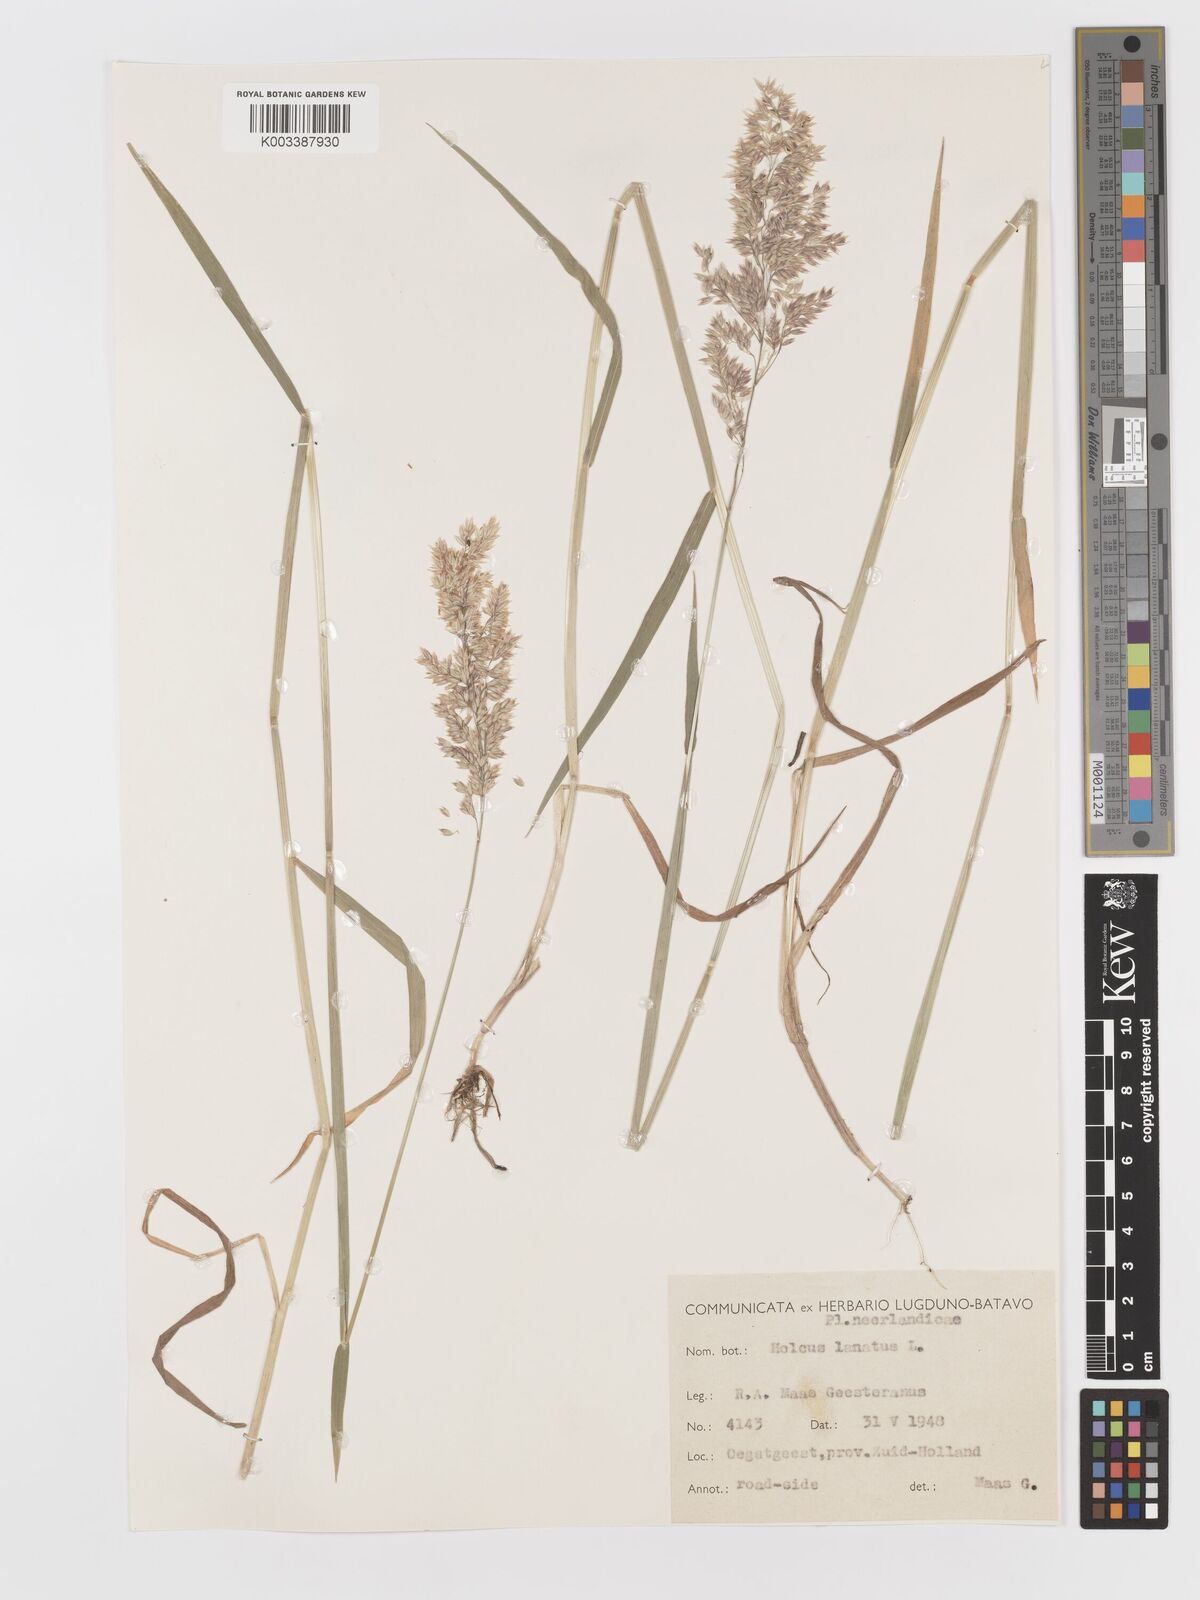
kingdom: Plantae
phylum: Tracheophyta
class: Liliopsida
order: Poales
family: Poaceae
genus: Holcus
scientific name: Holcus lanatus
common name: Yorkshire-fog
